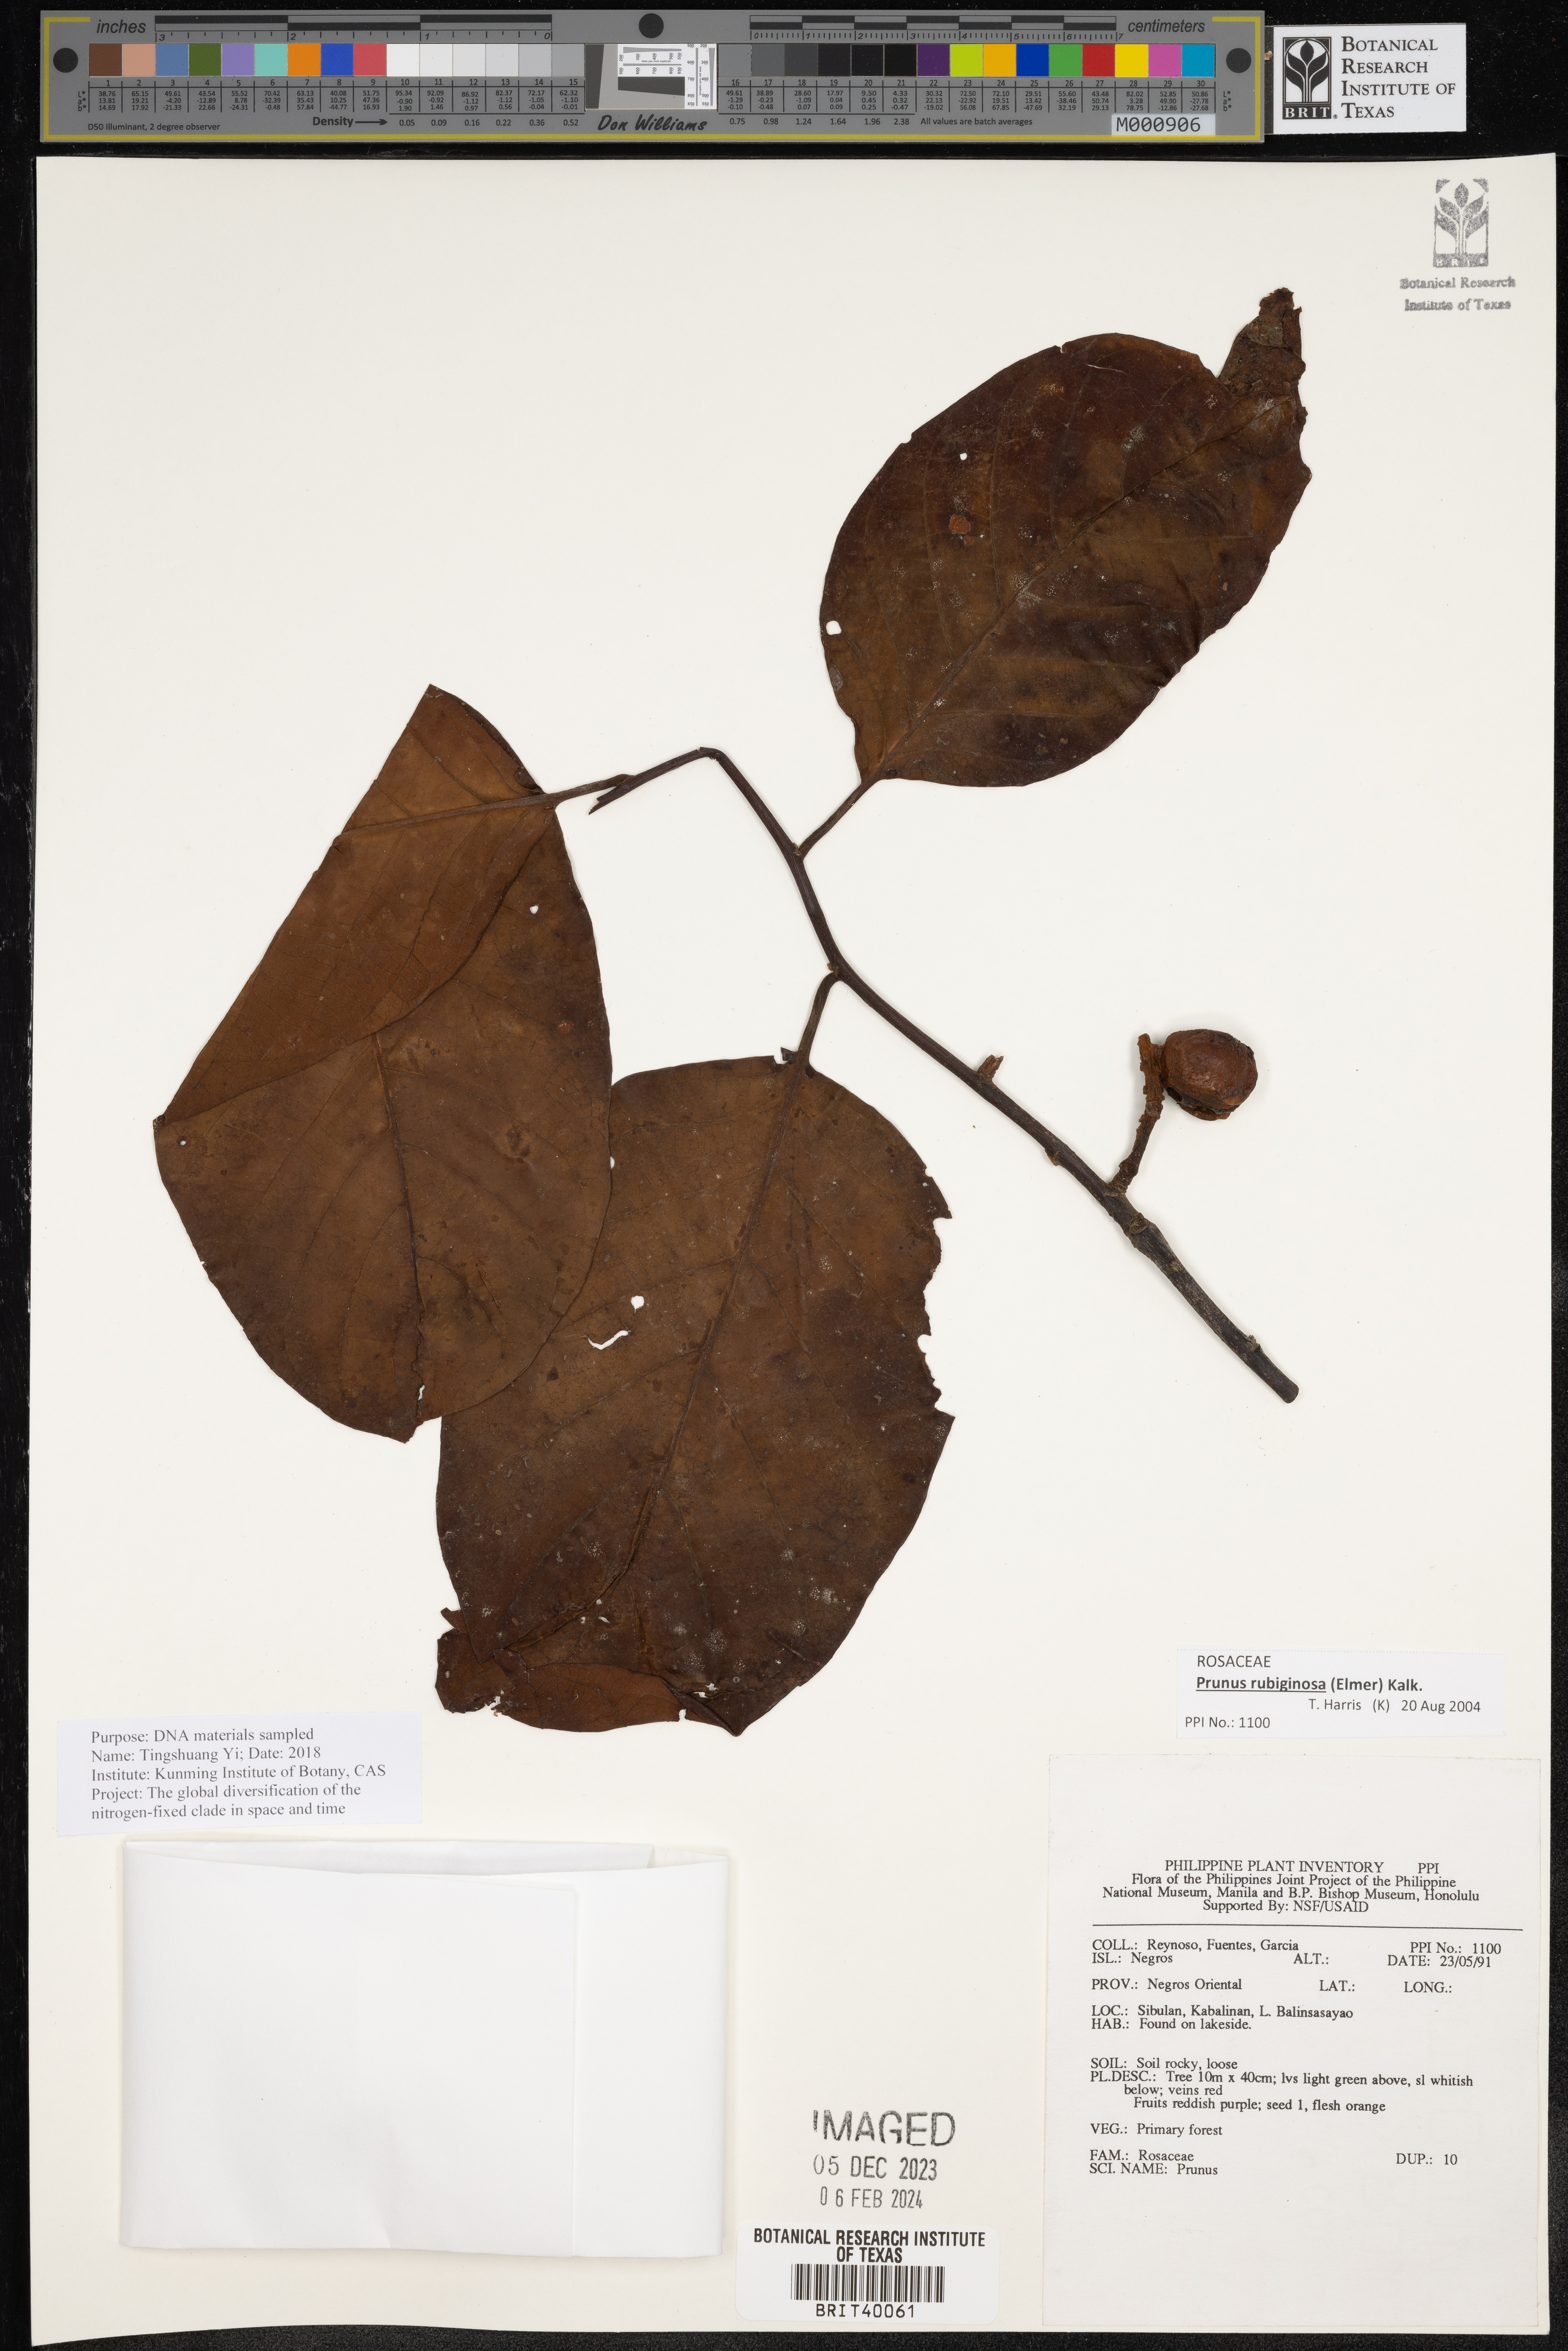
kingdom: Plantae
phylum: Tracheophyta
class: Magnoliopsida
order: Rosales
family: Rosaceae
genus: Prunus
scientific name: Prunus
